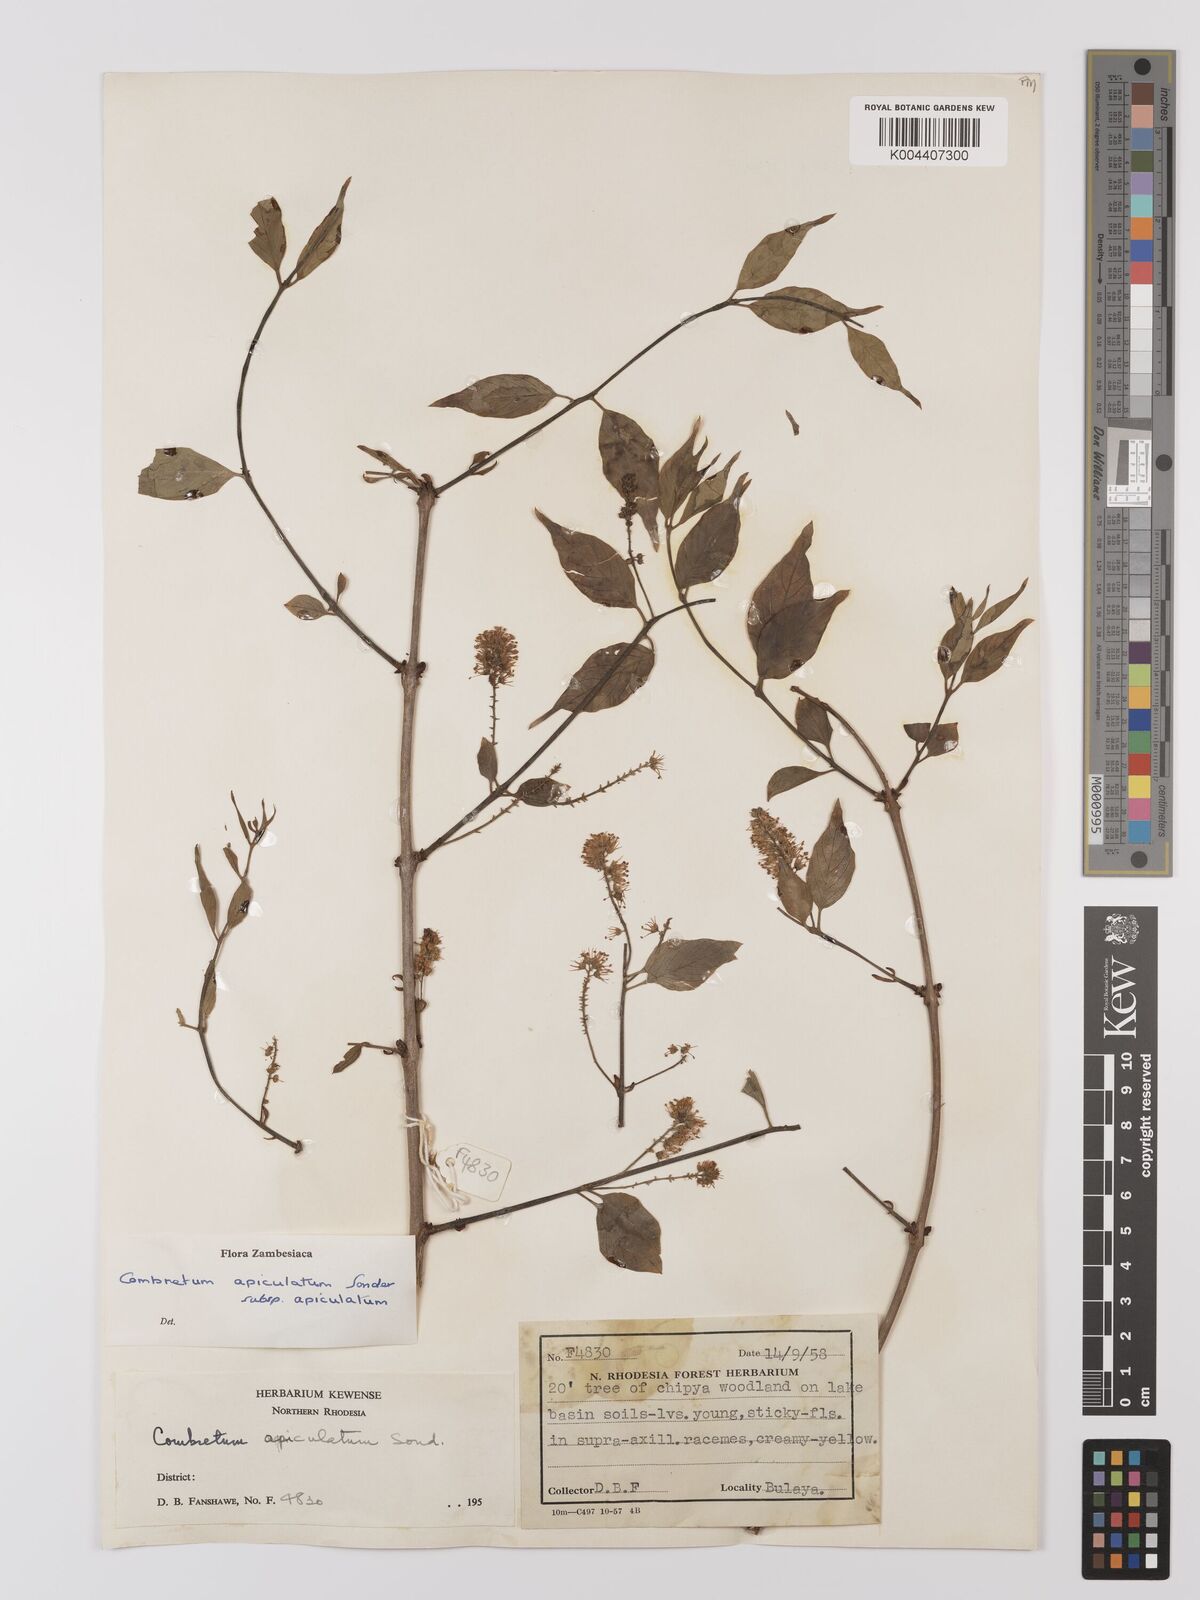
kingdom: Plantae
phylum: Tracheophyta
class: Magnoliopsida
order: Myrtales
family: Combretaceae
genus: Combretum
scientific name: Combretum apiculatum
